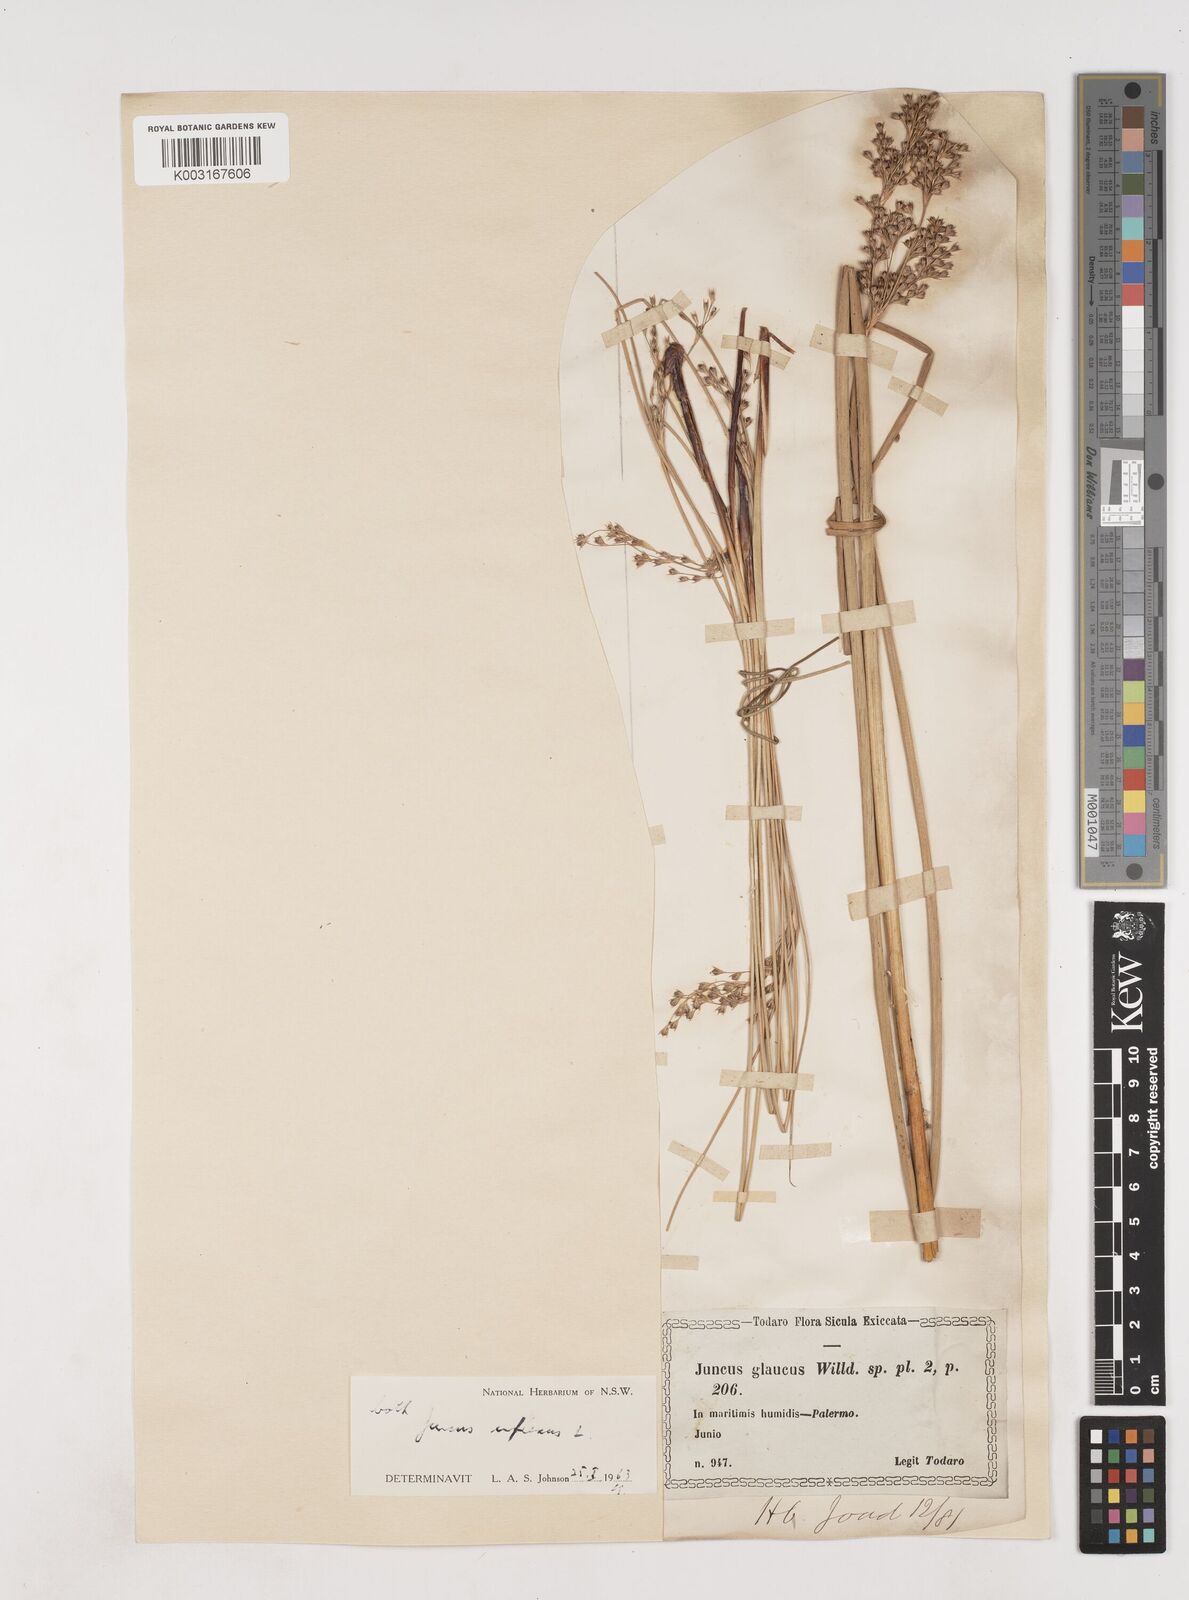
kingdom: Plantae
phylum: Tracheophyta
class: Liliopsida
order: Poales
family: Juncaceae
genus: Juncus
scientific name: Juncus inflexus
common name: Hard rush
